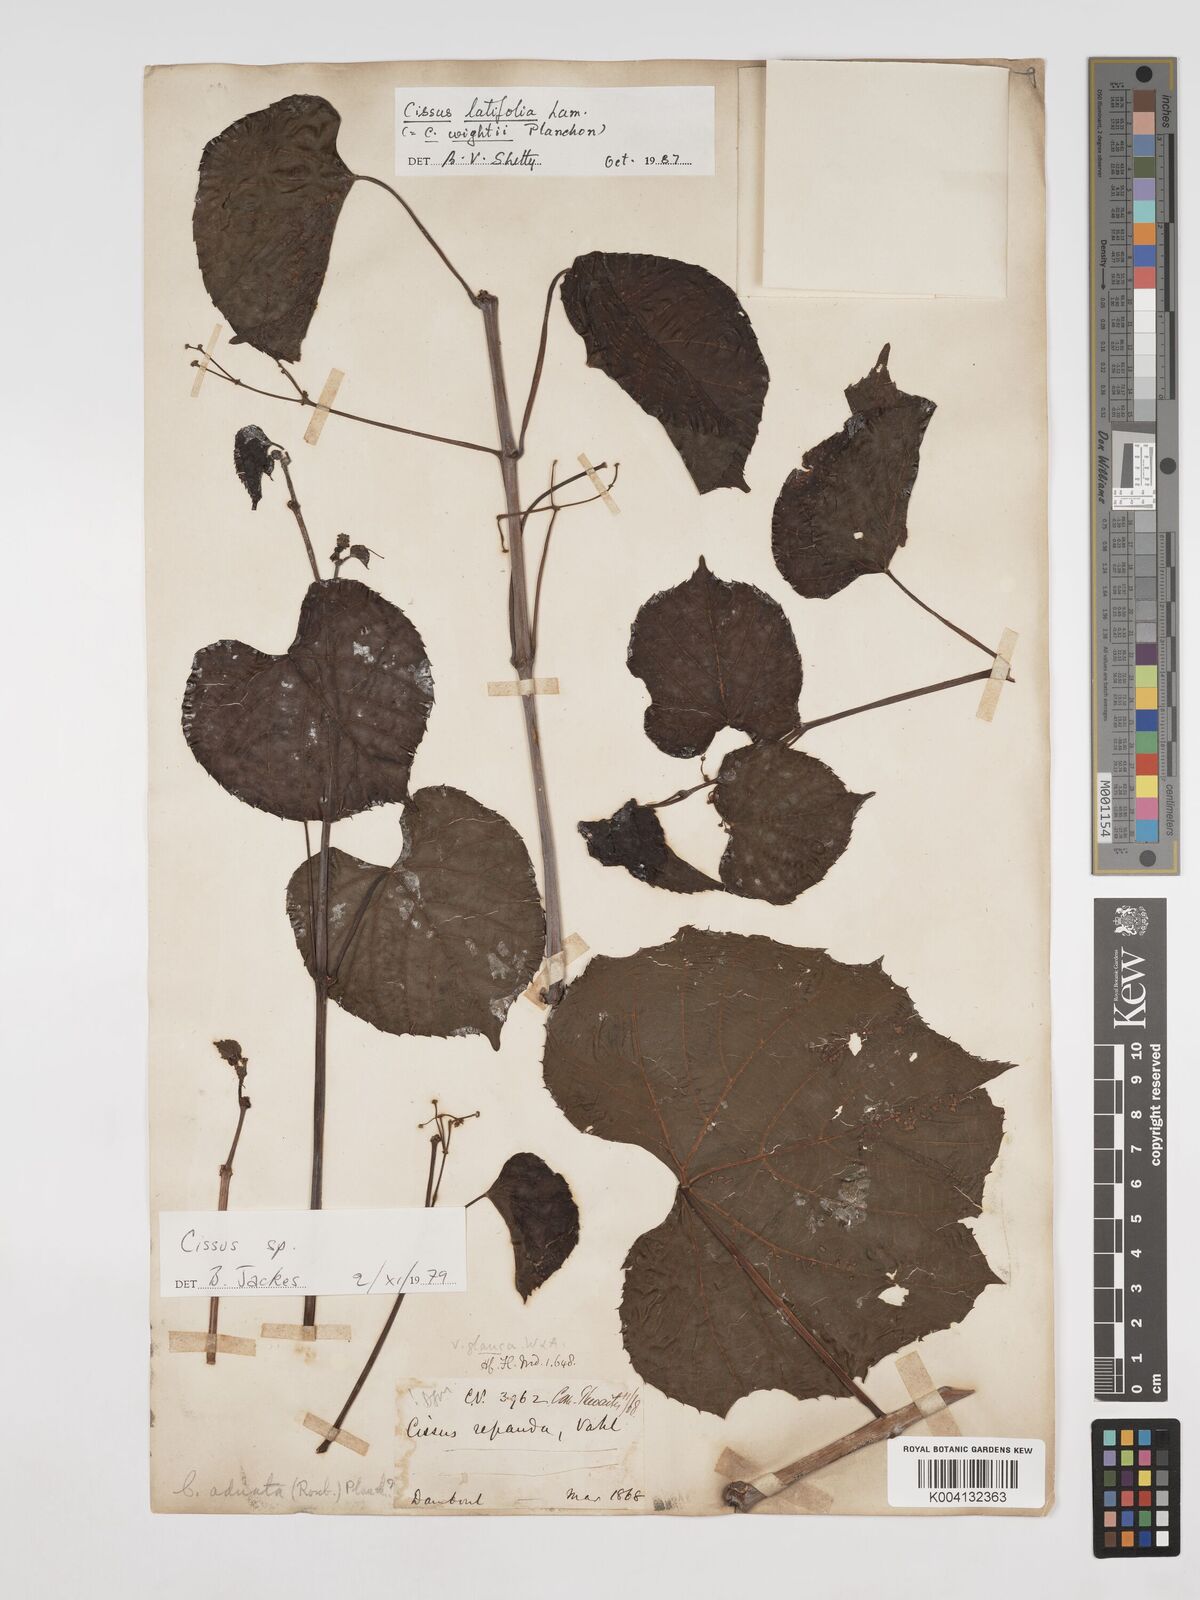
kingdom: Plantae
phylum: Tracheophyta
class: Magnoliopsida
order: Vitales
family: Vitaceae
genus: Cissus
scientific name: Cissus
